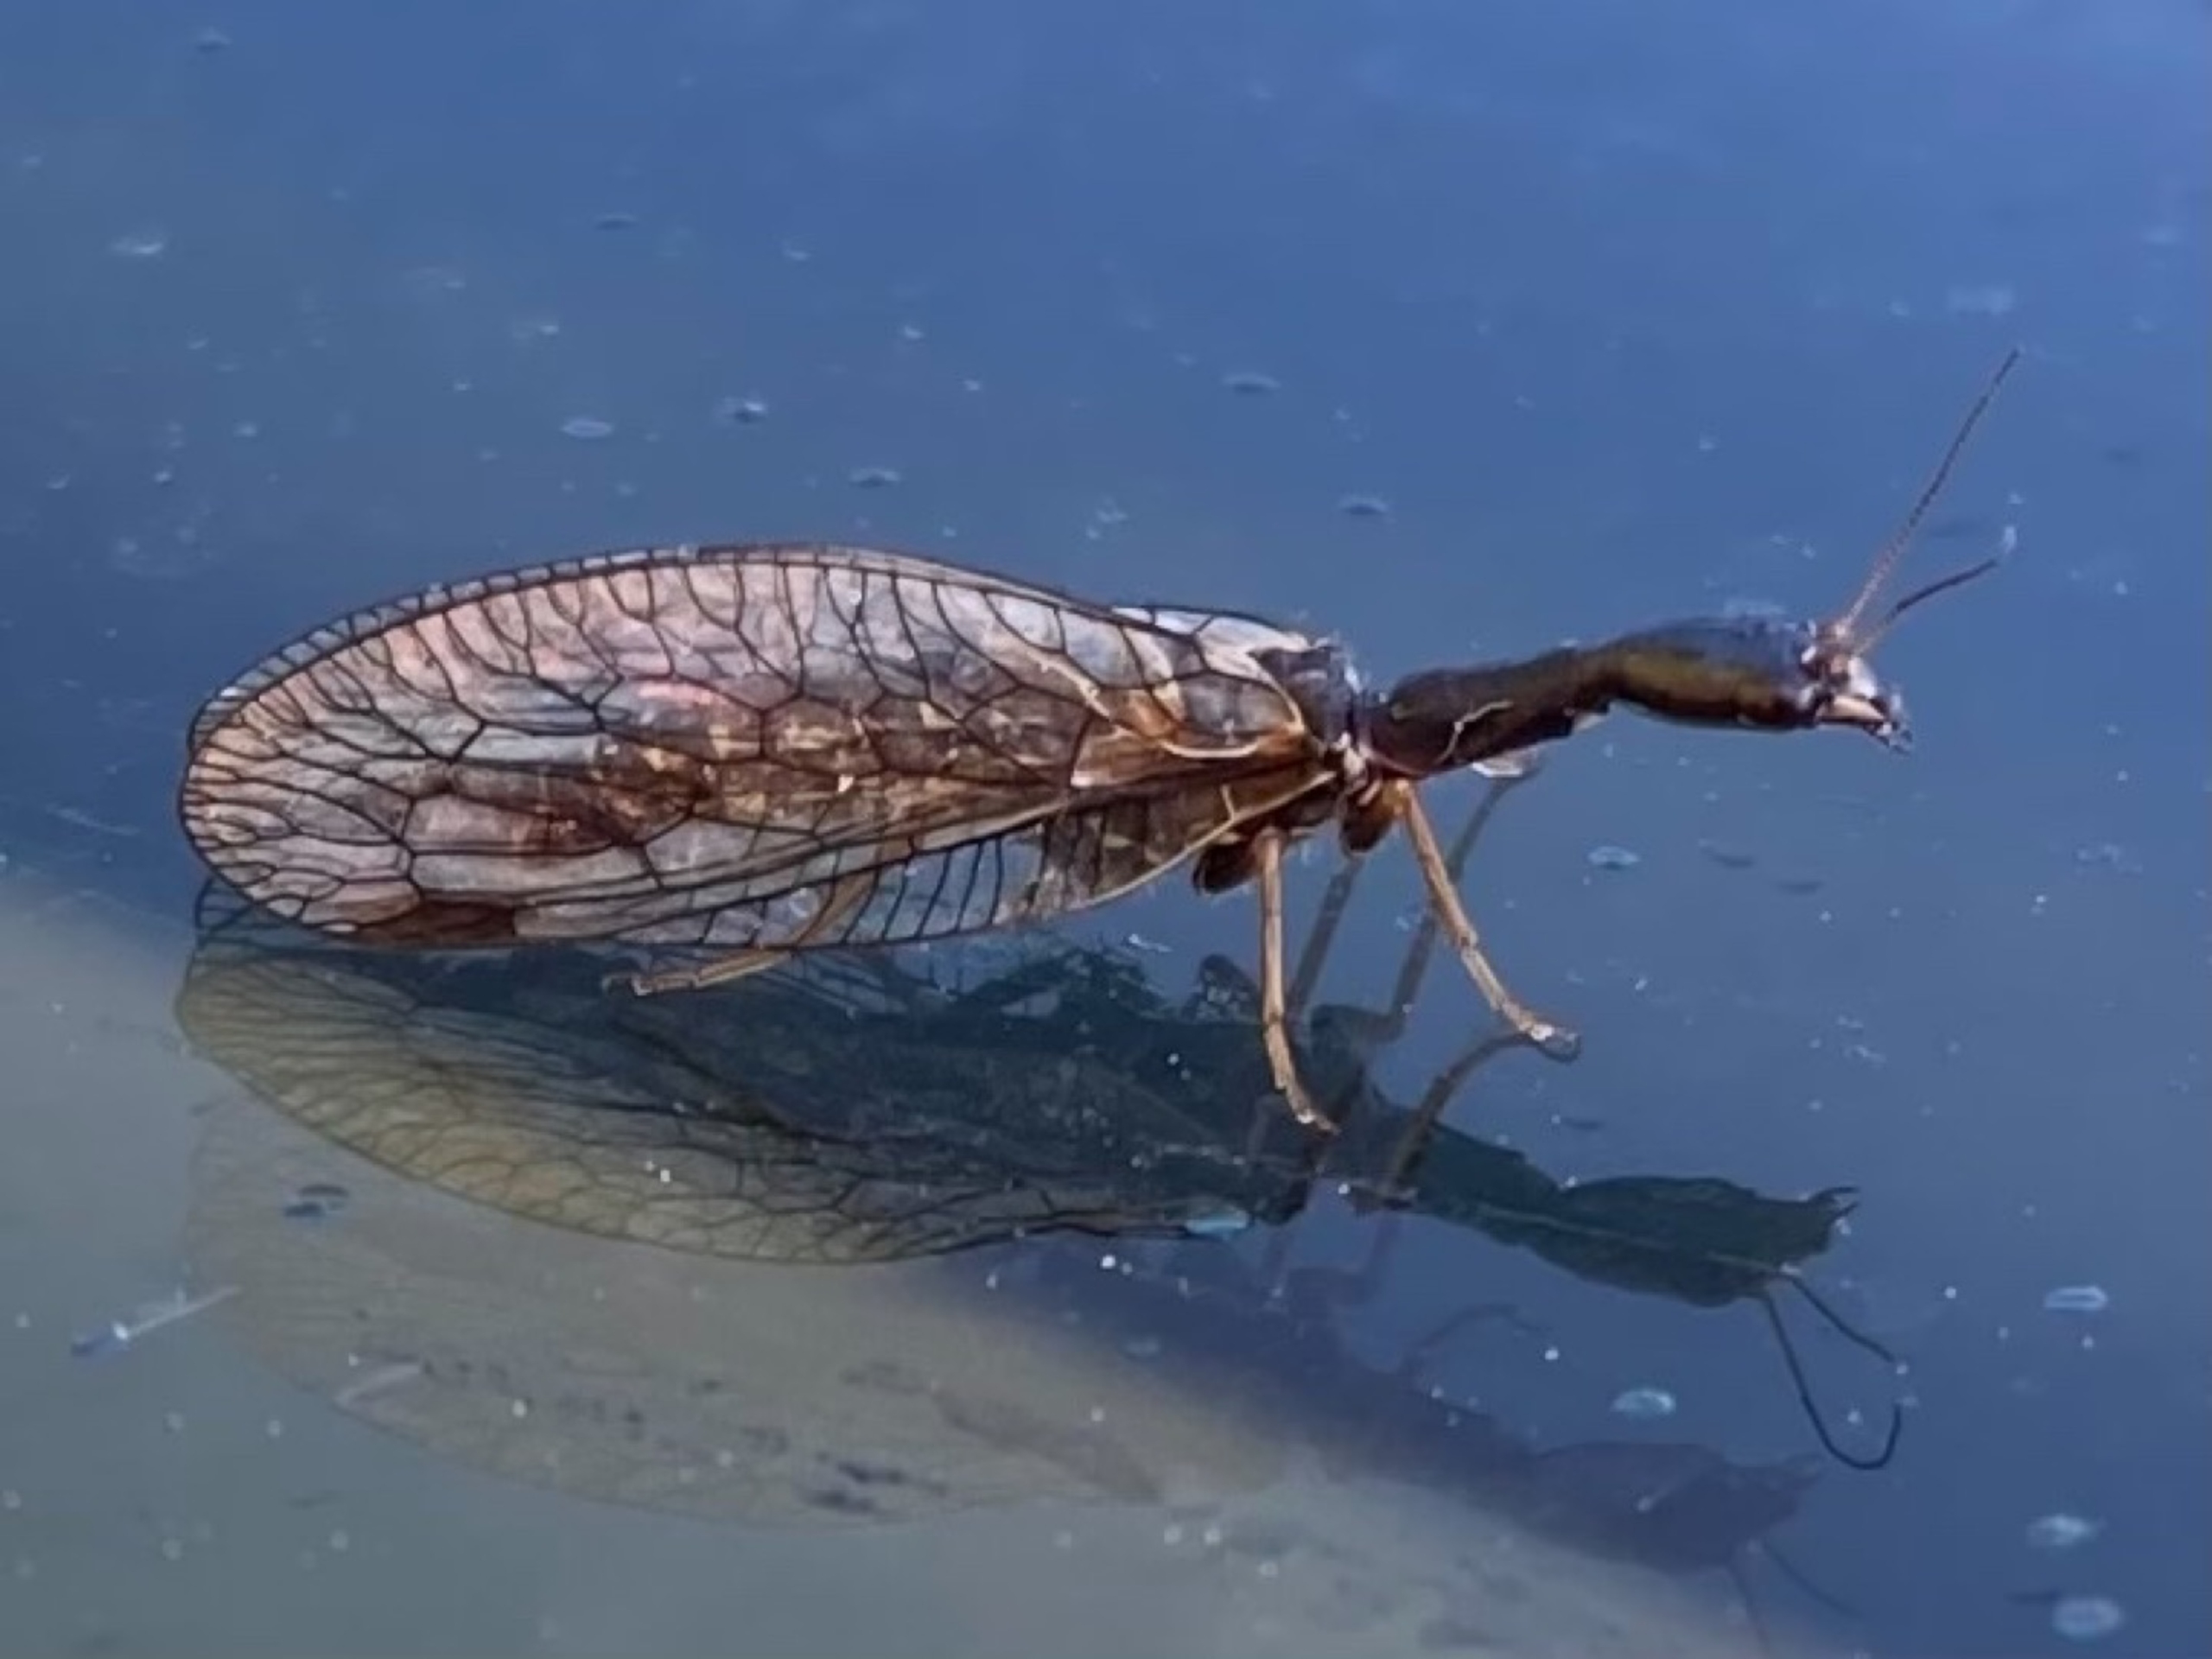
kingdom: Animalia
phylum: Arthropoda
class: Insecta
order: Raphidioptera
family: Raphidiidae
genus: Phaeostigma
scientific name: Phaeostigma notatum
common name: Stor kamelhalsflue
